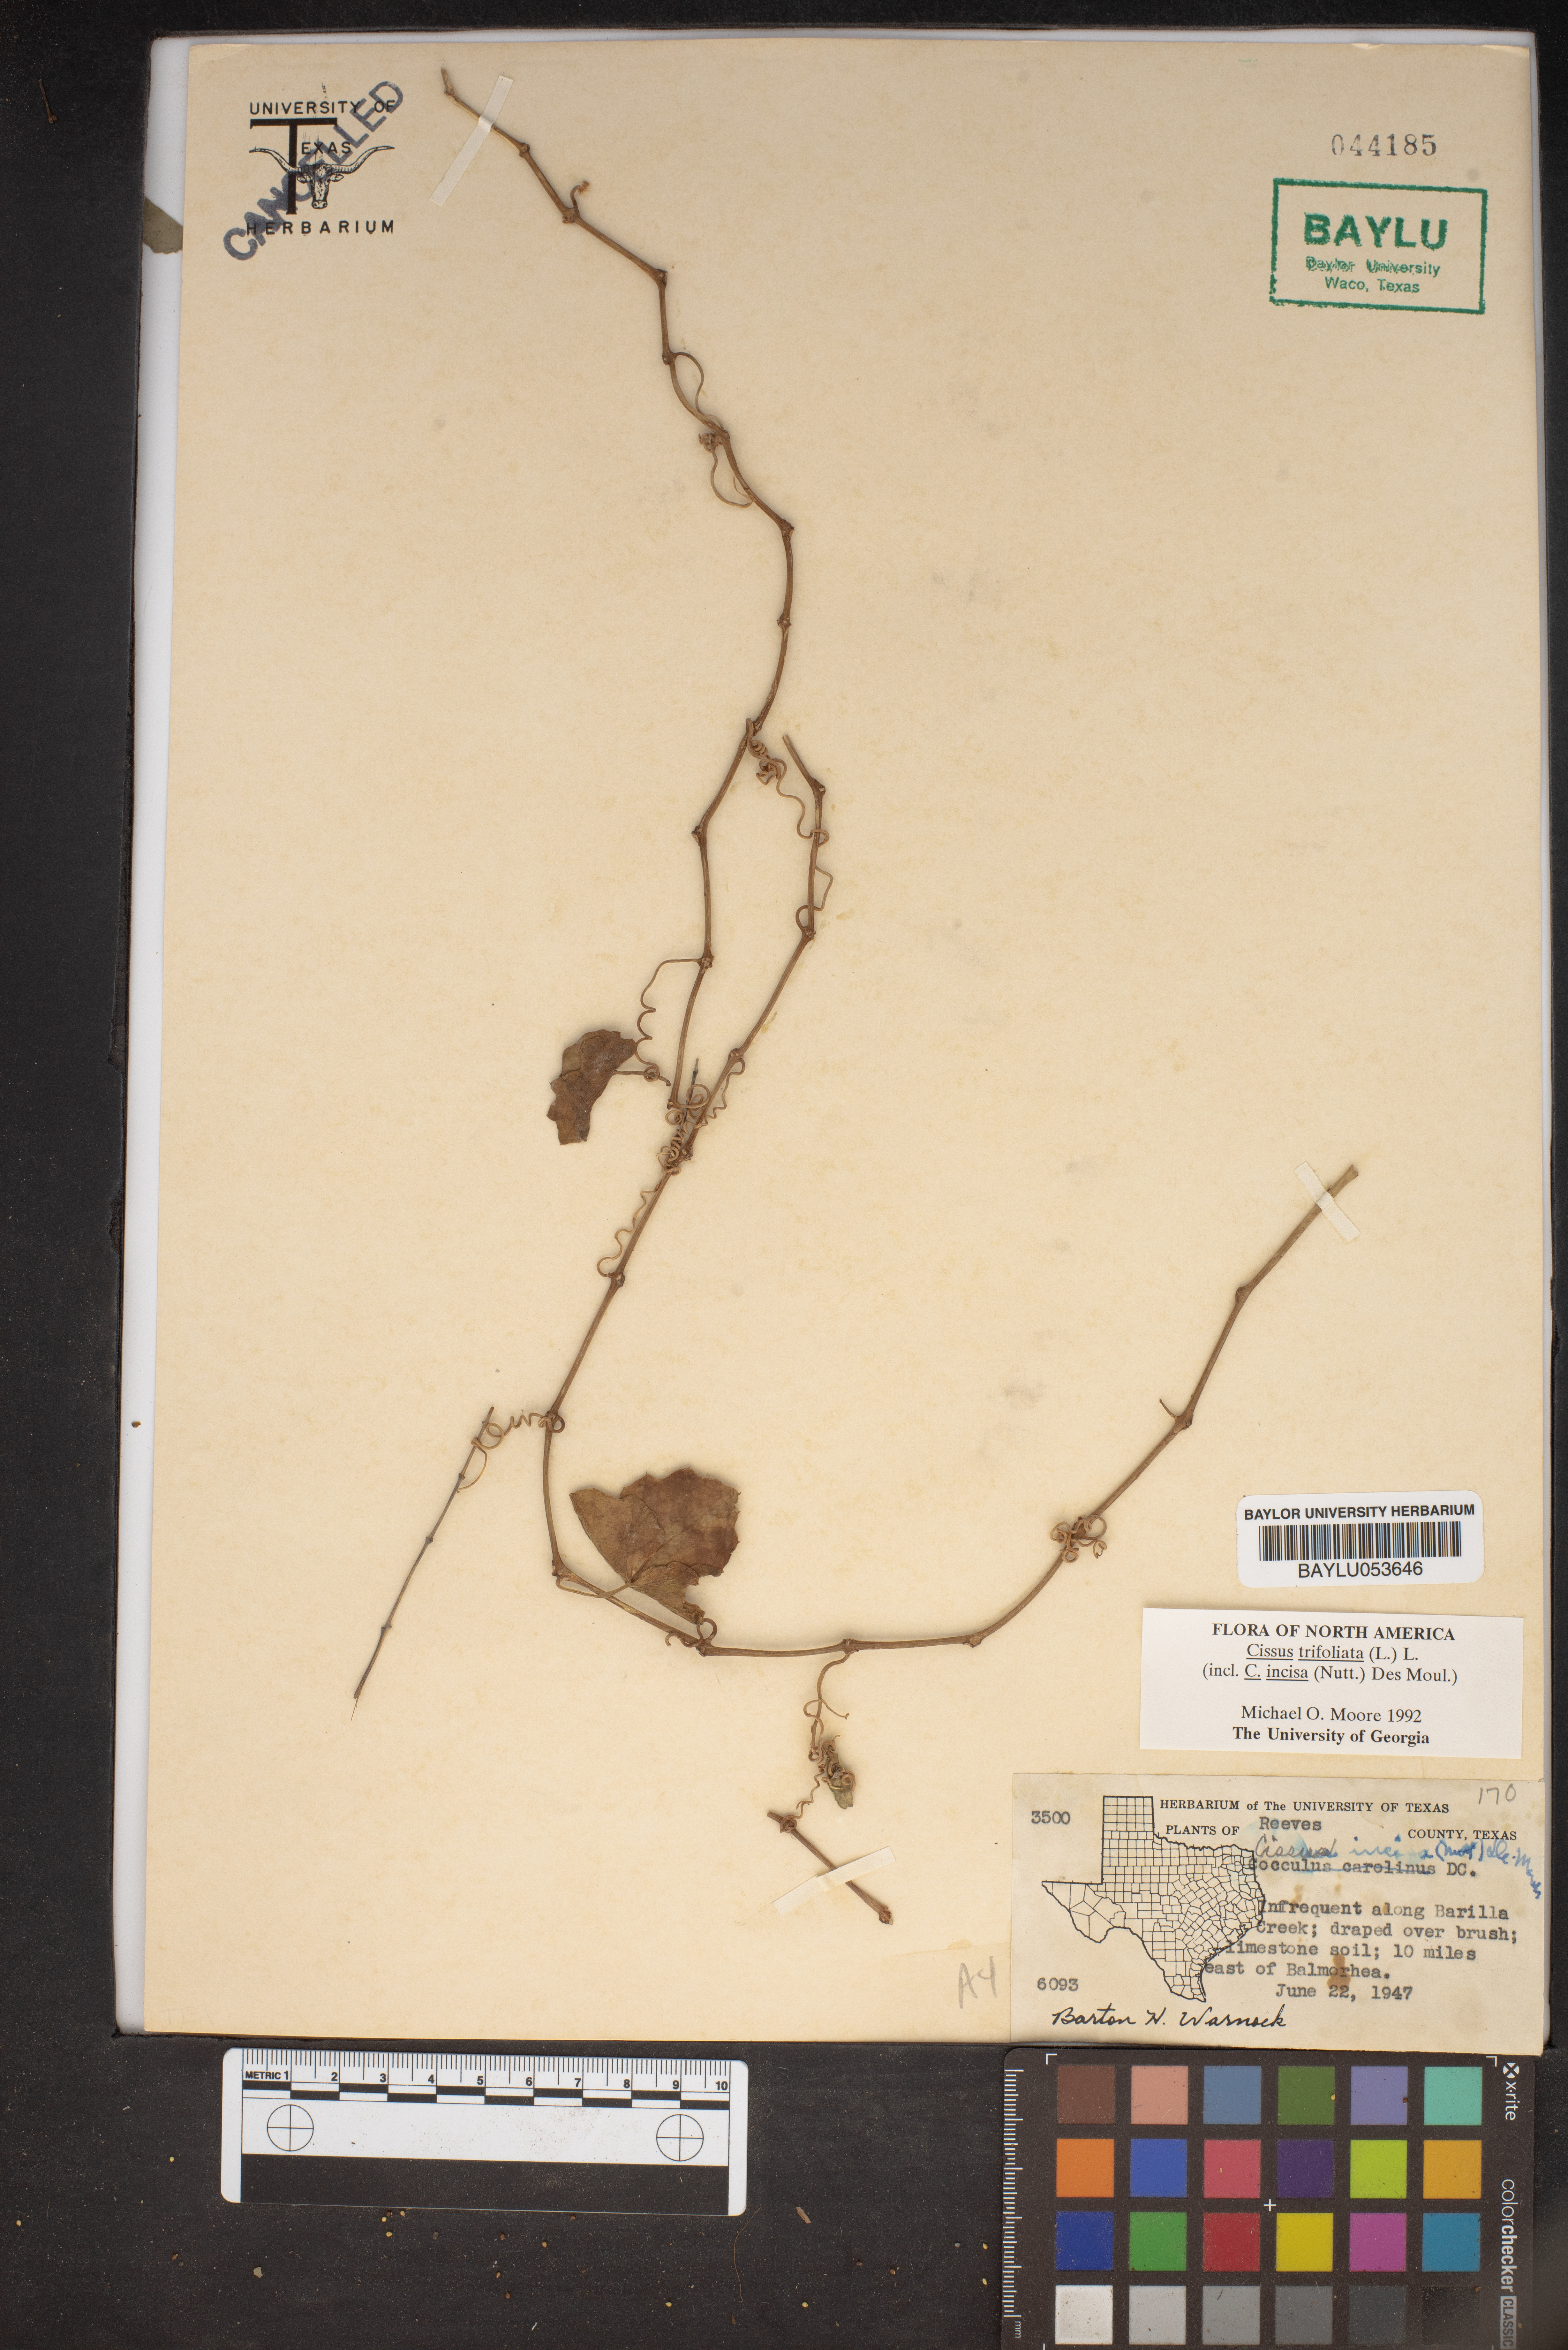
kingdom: Plantae
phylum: Tracheophyta
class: Magnoliopsida
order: Vitales
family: Vitaceae
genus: Cissus
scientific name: Cissus trifoliata
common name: Vine-sorrel
